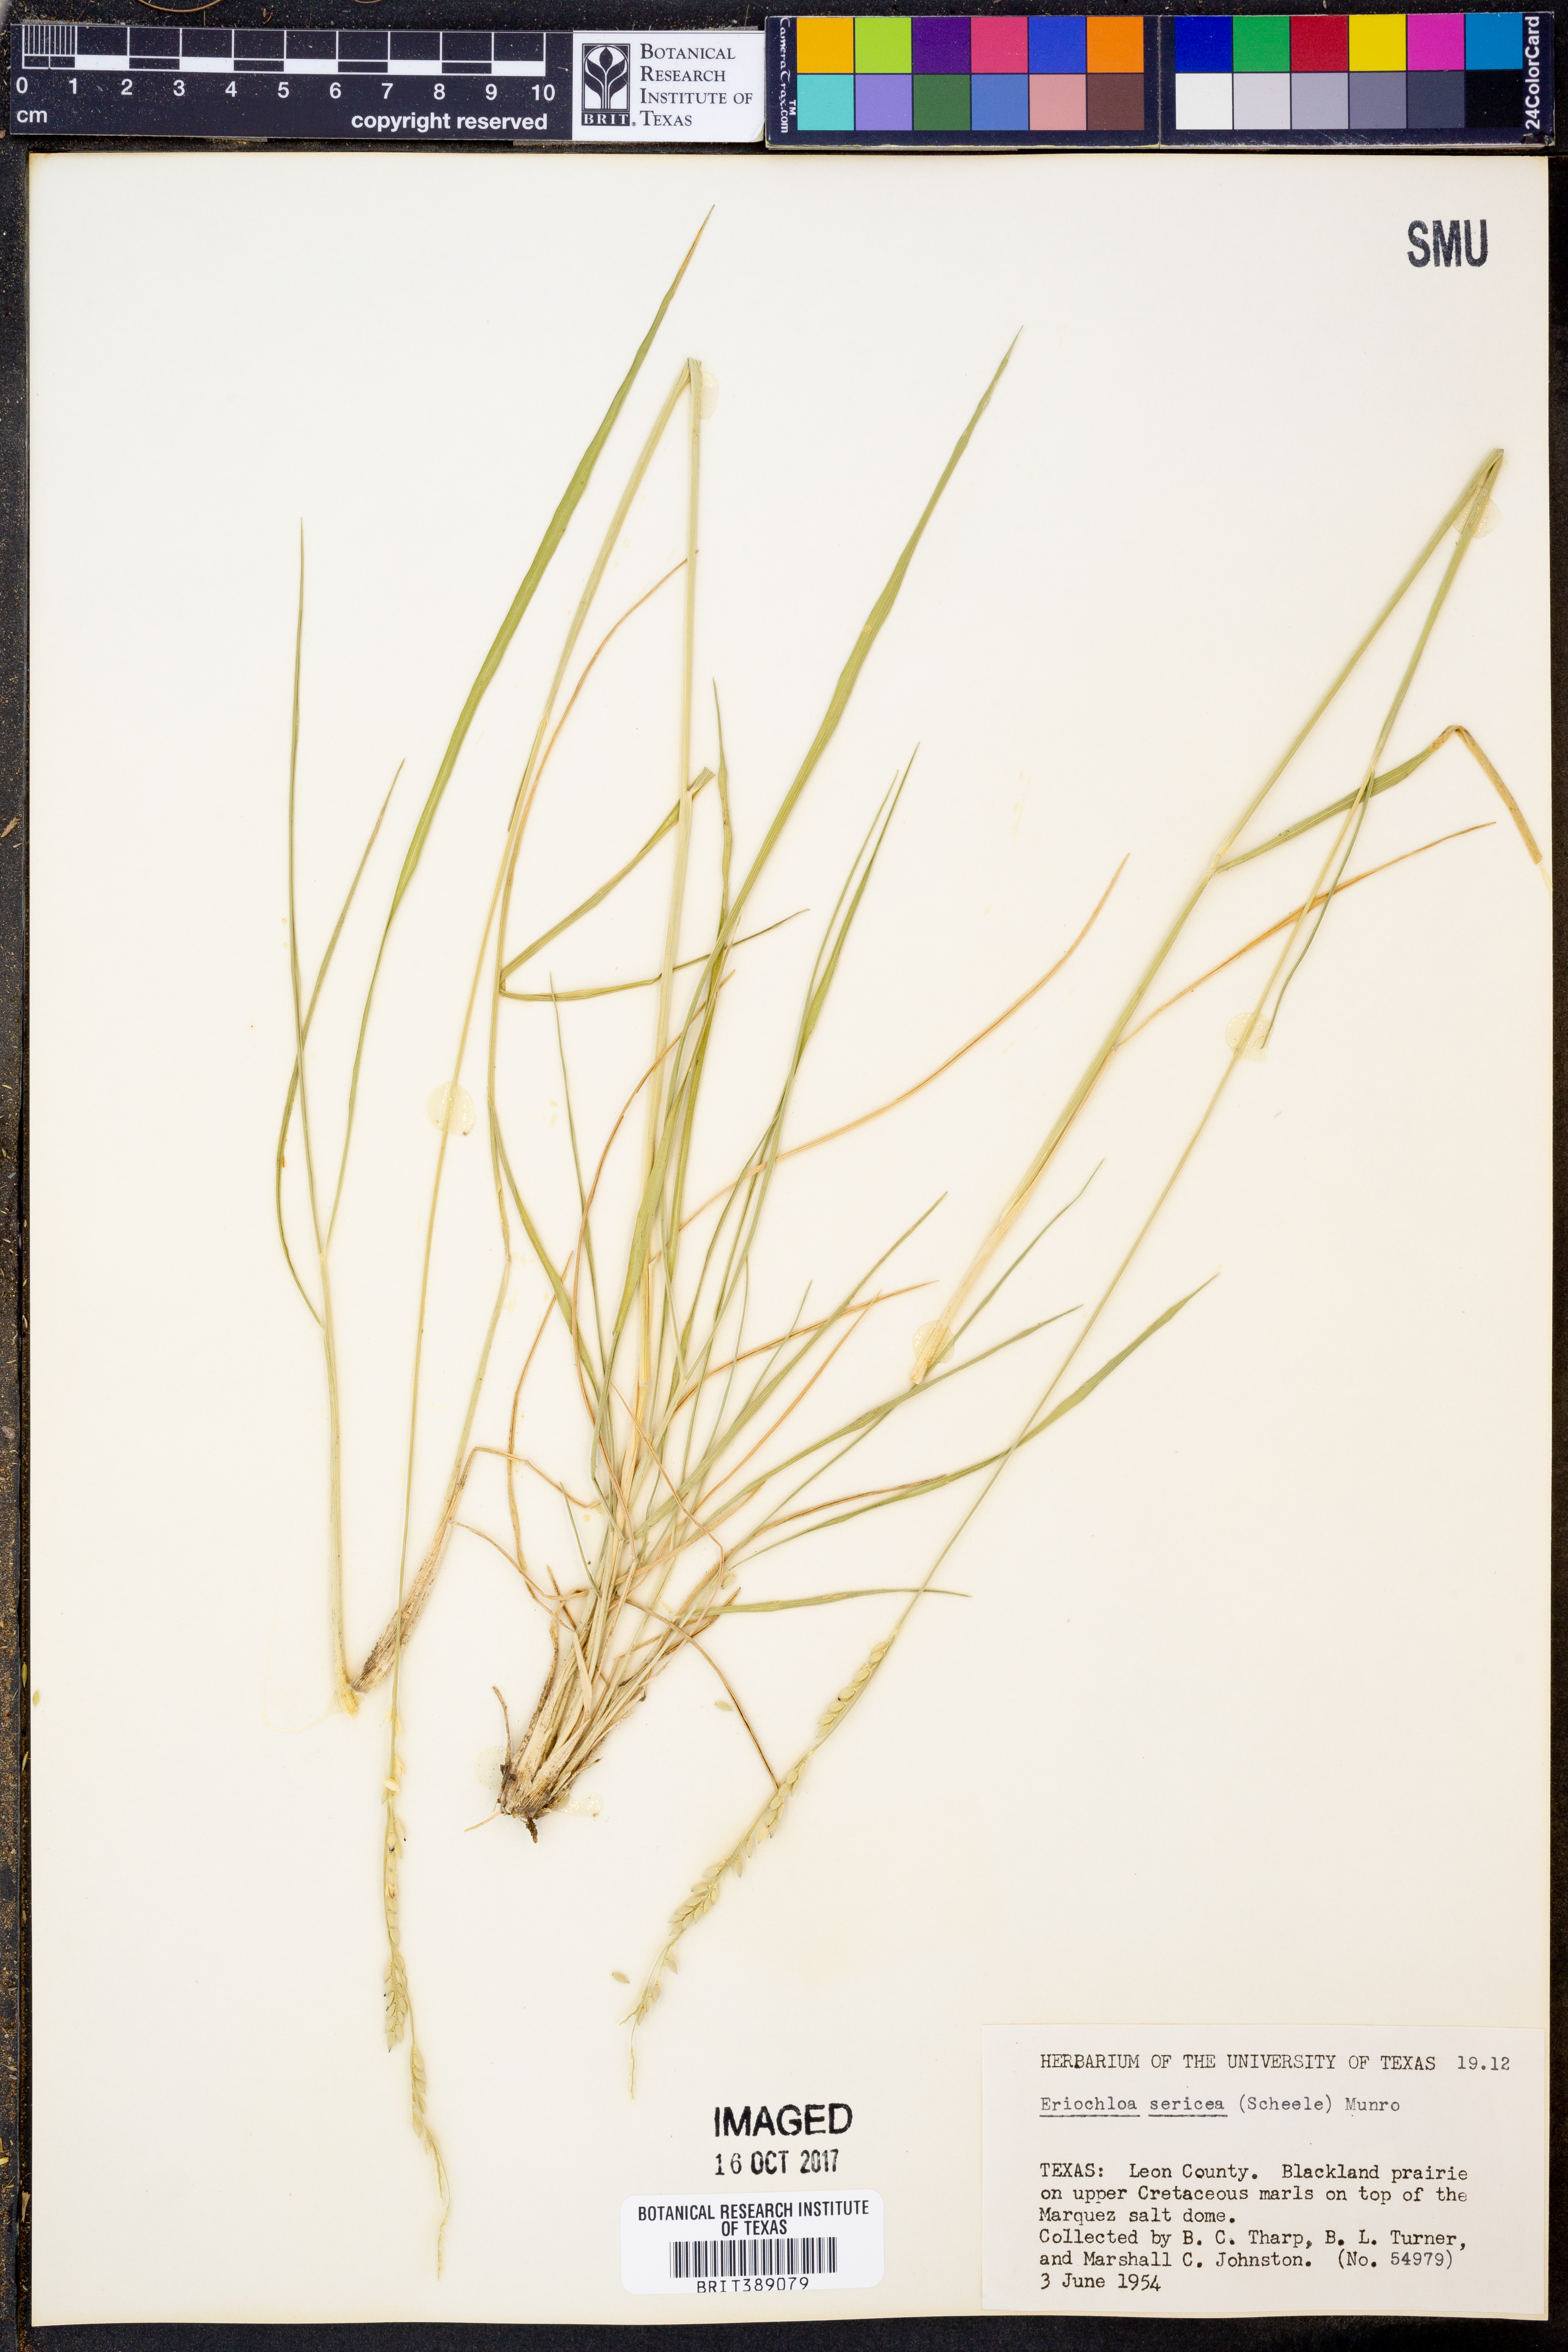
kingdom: Plantae
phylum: Tracheophyta
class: Liliopsida
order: Poales
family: Poaceae
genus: Eriochloa
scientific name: Eriochloa sericea
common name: Texas cup grass
